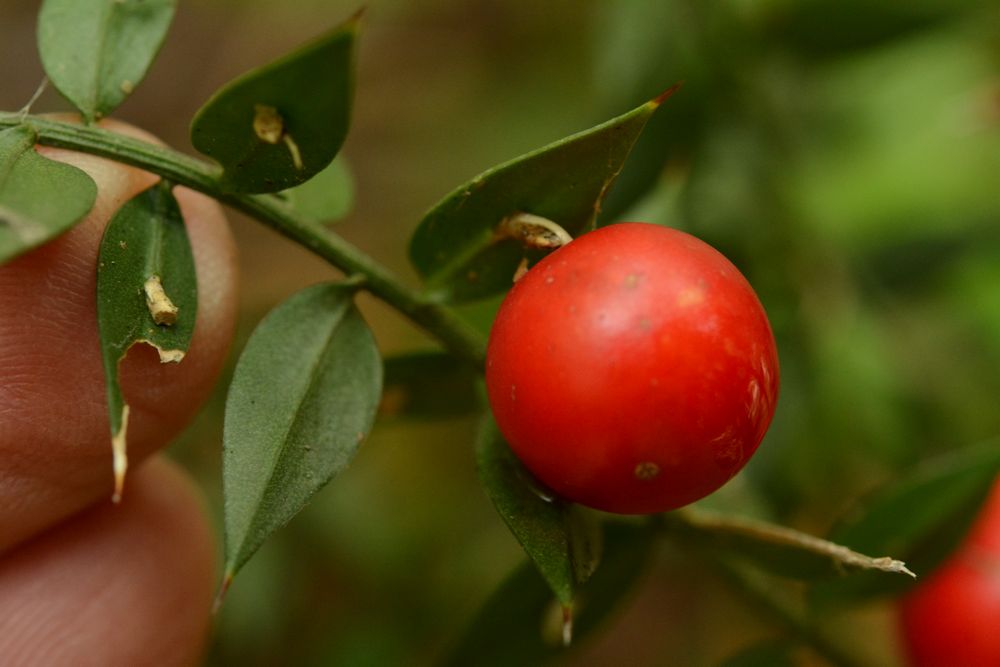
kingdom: Plantae
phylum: Tracheophyta
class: Liliopsida
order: Liliales
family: Liliaceae
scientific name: Liliaceae
